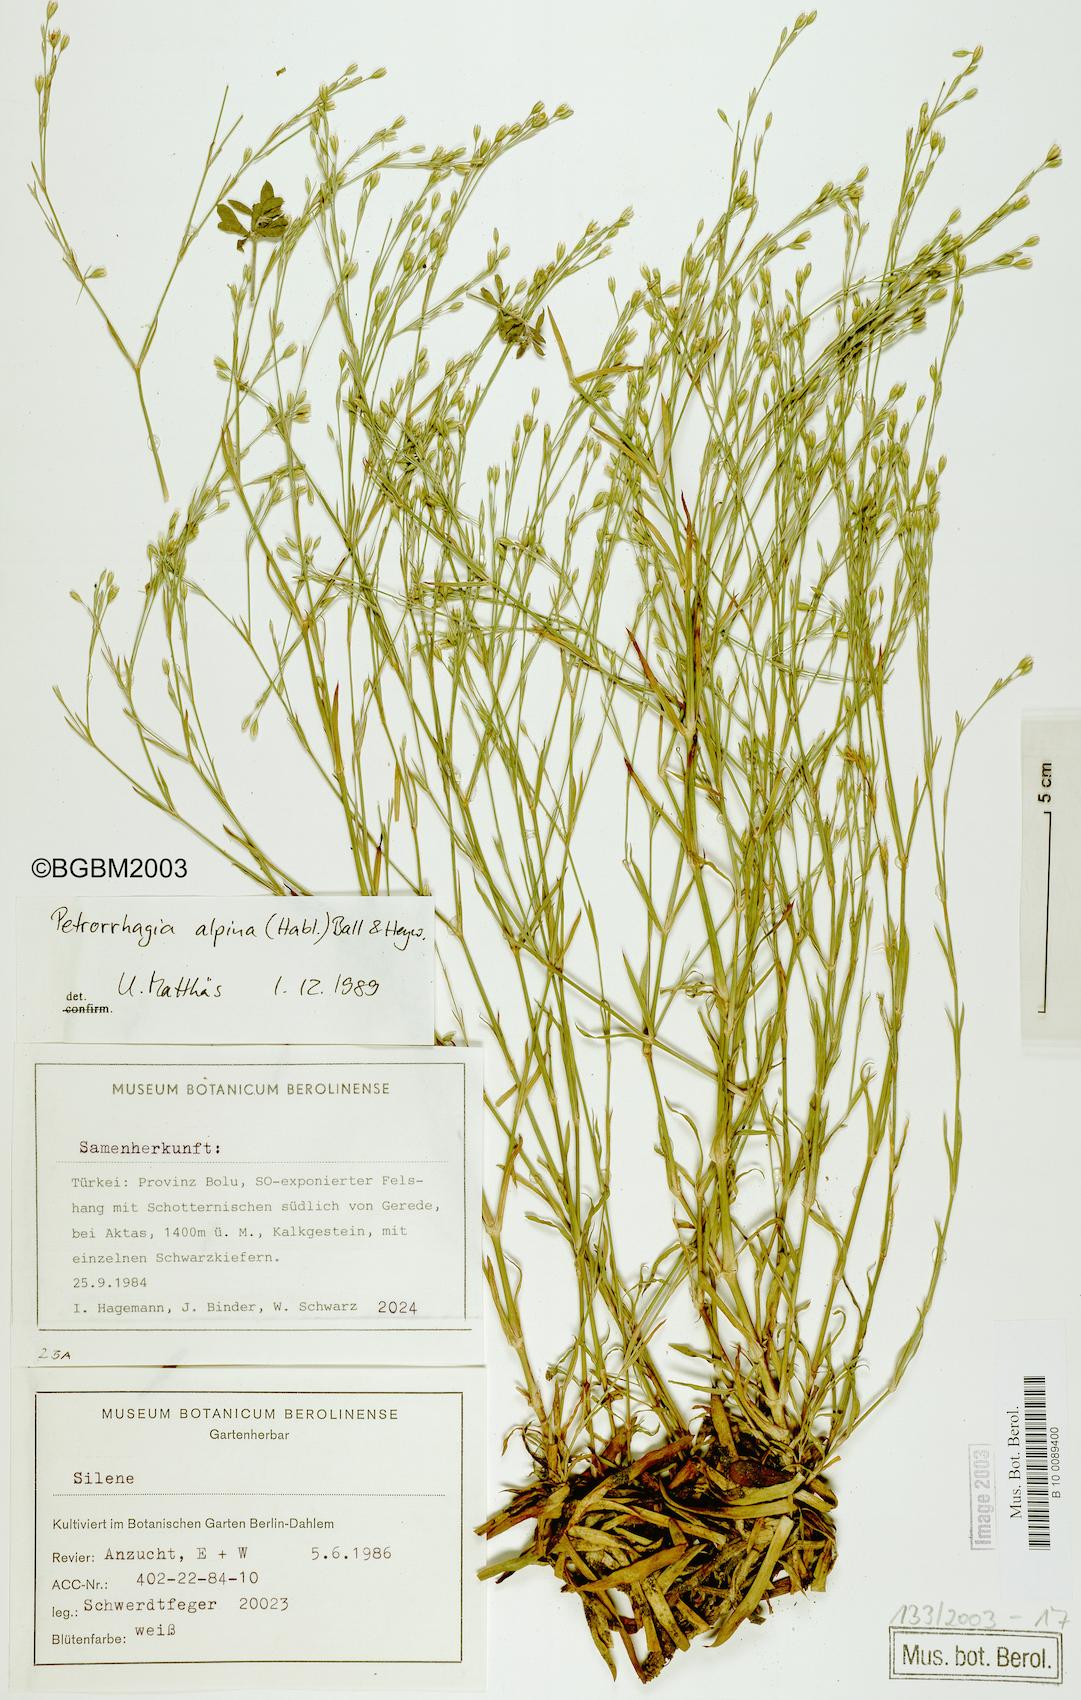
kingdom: Plantae
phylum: Tracheophyta
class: Magnoliopsida
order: Caryophyllales
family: Caryophyllaceae
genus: Petrorhagia
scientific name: Petrorhagia alpina
